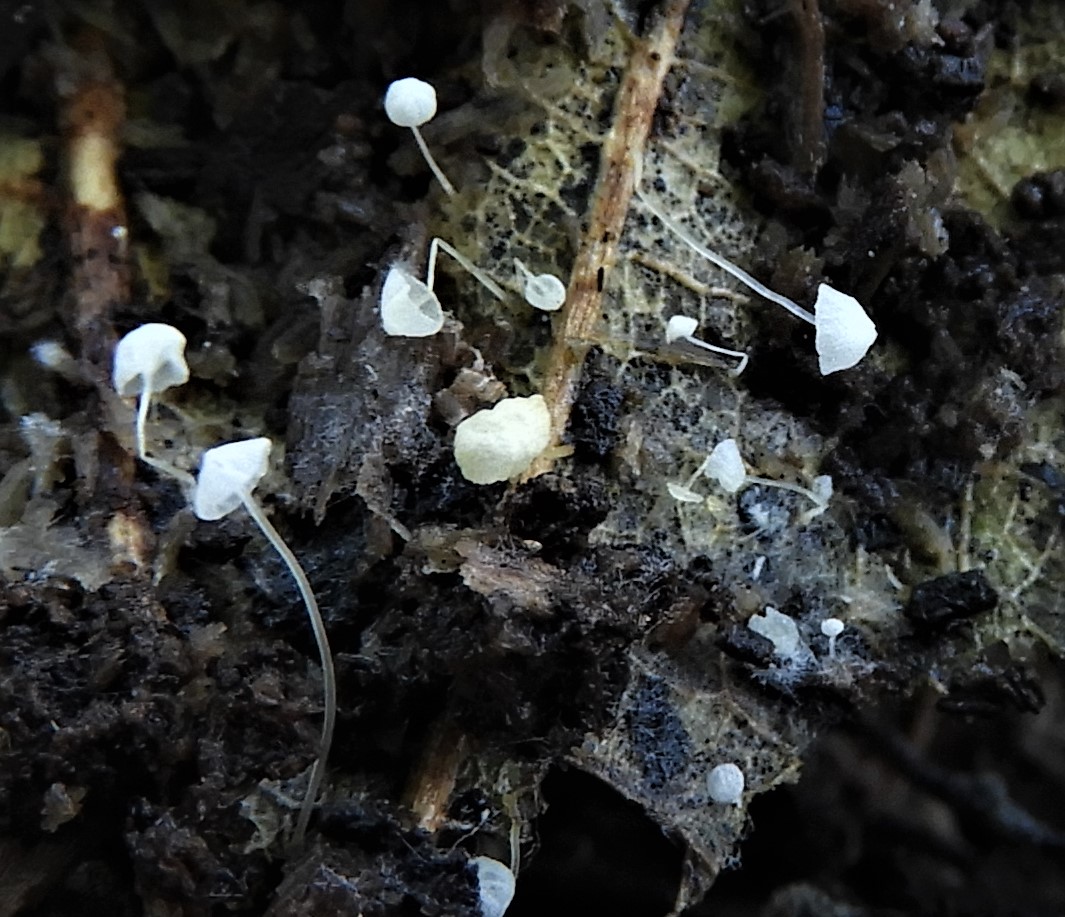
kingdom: Fungi
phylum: Basidiomycota
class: Agaricomycetes
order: Agaricales
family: Mycenaceae
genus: Mycena
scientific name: Mycena
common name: huesvamp
